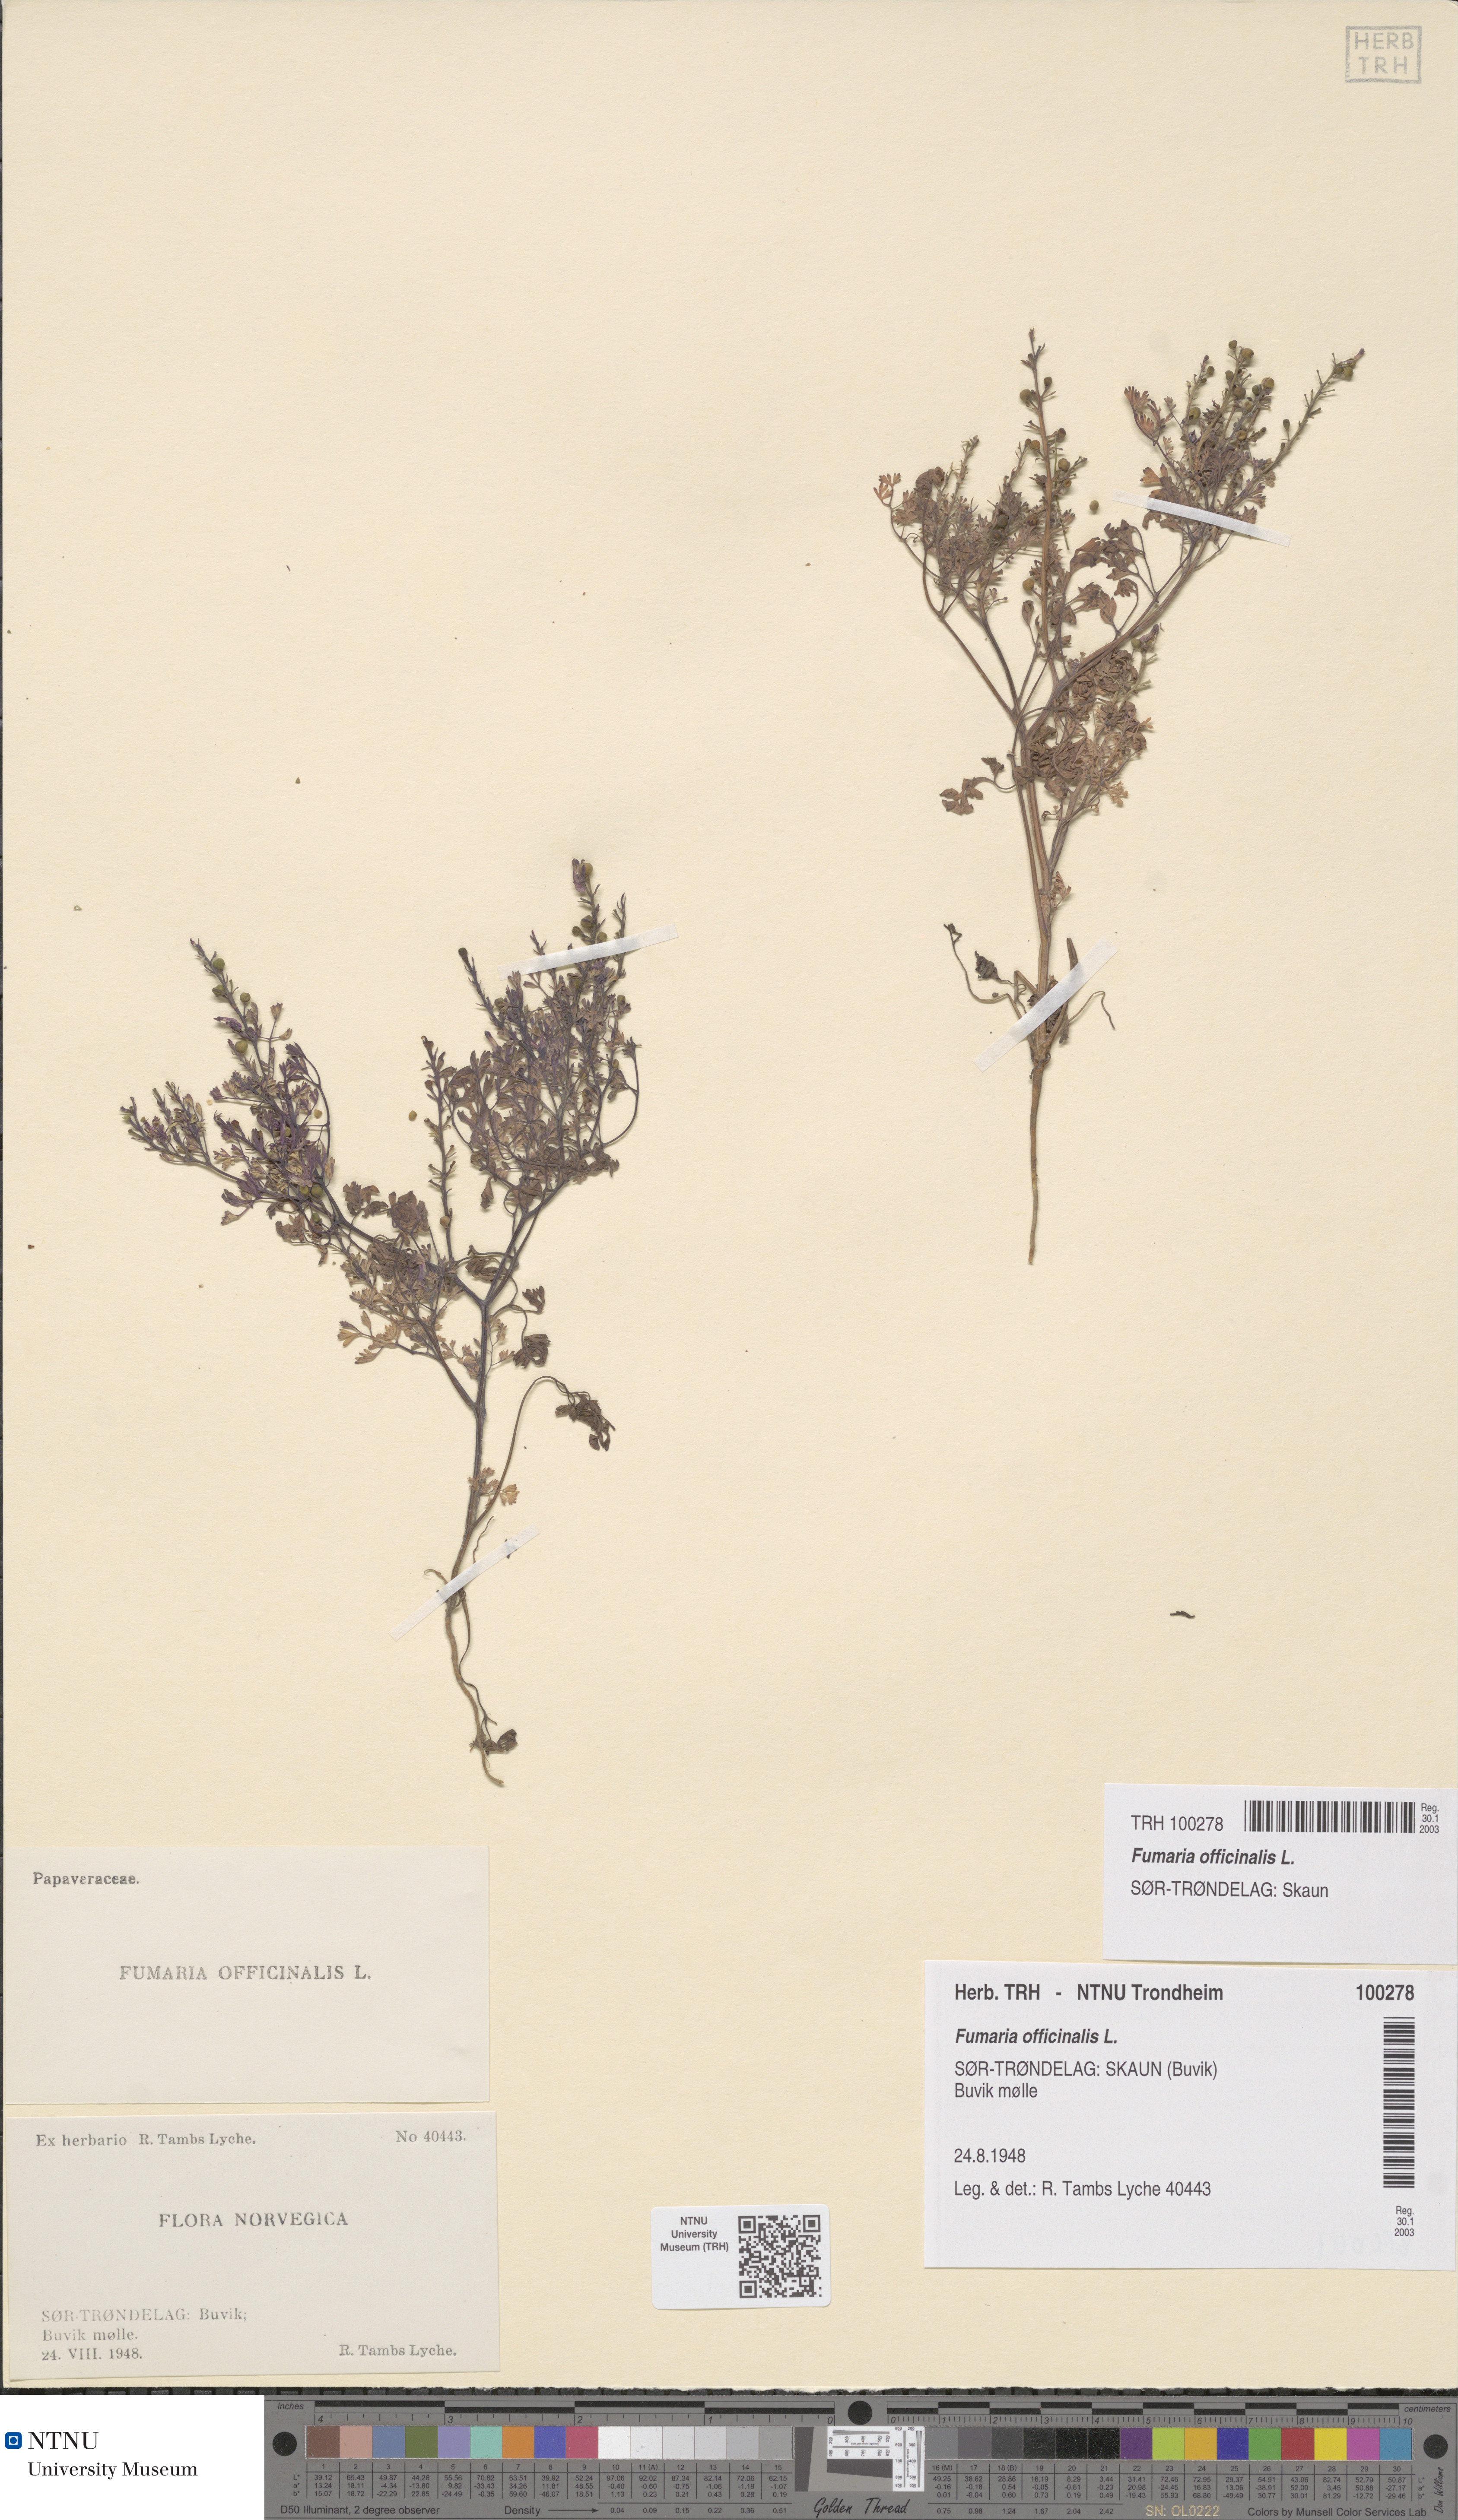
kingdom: Plantae
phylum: Tracheophyta
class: Magnoliopsida
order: Ranunculales
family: Papaveraceae
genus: Fumaria
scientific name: Fumaria officinalis
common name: Common fumitory
